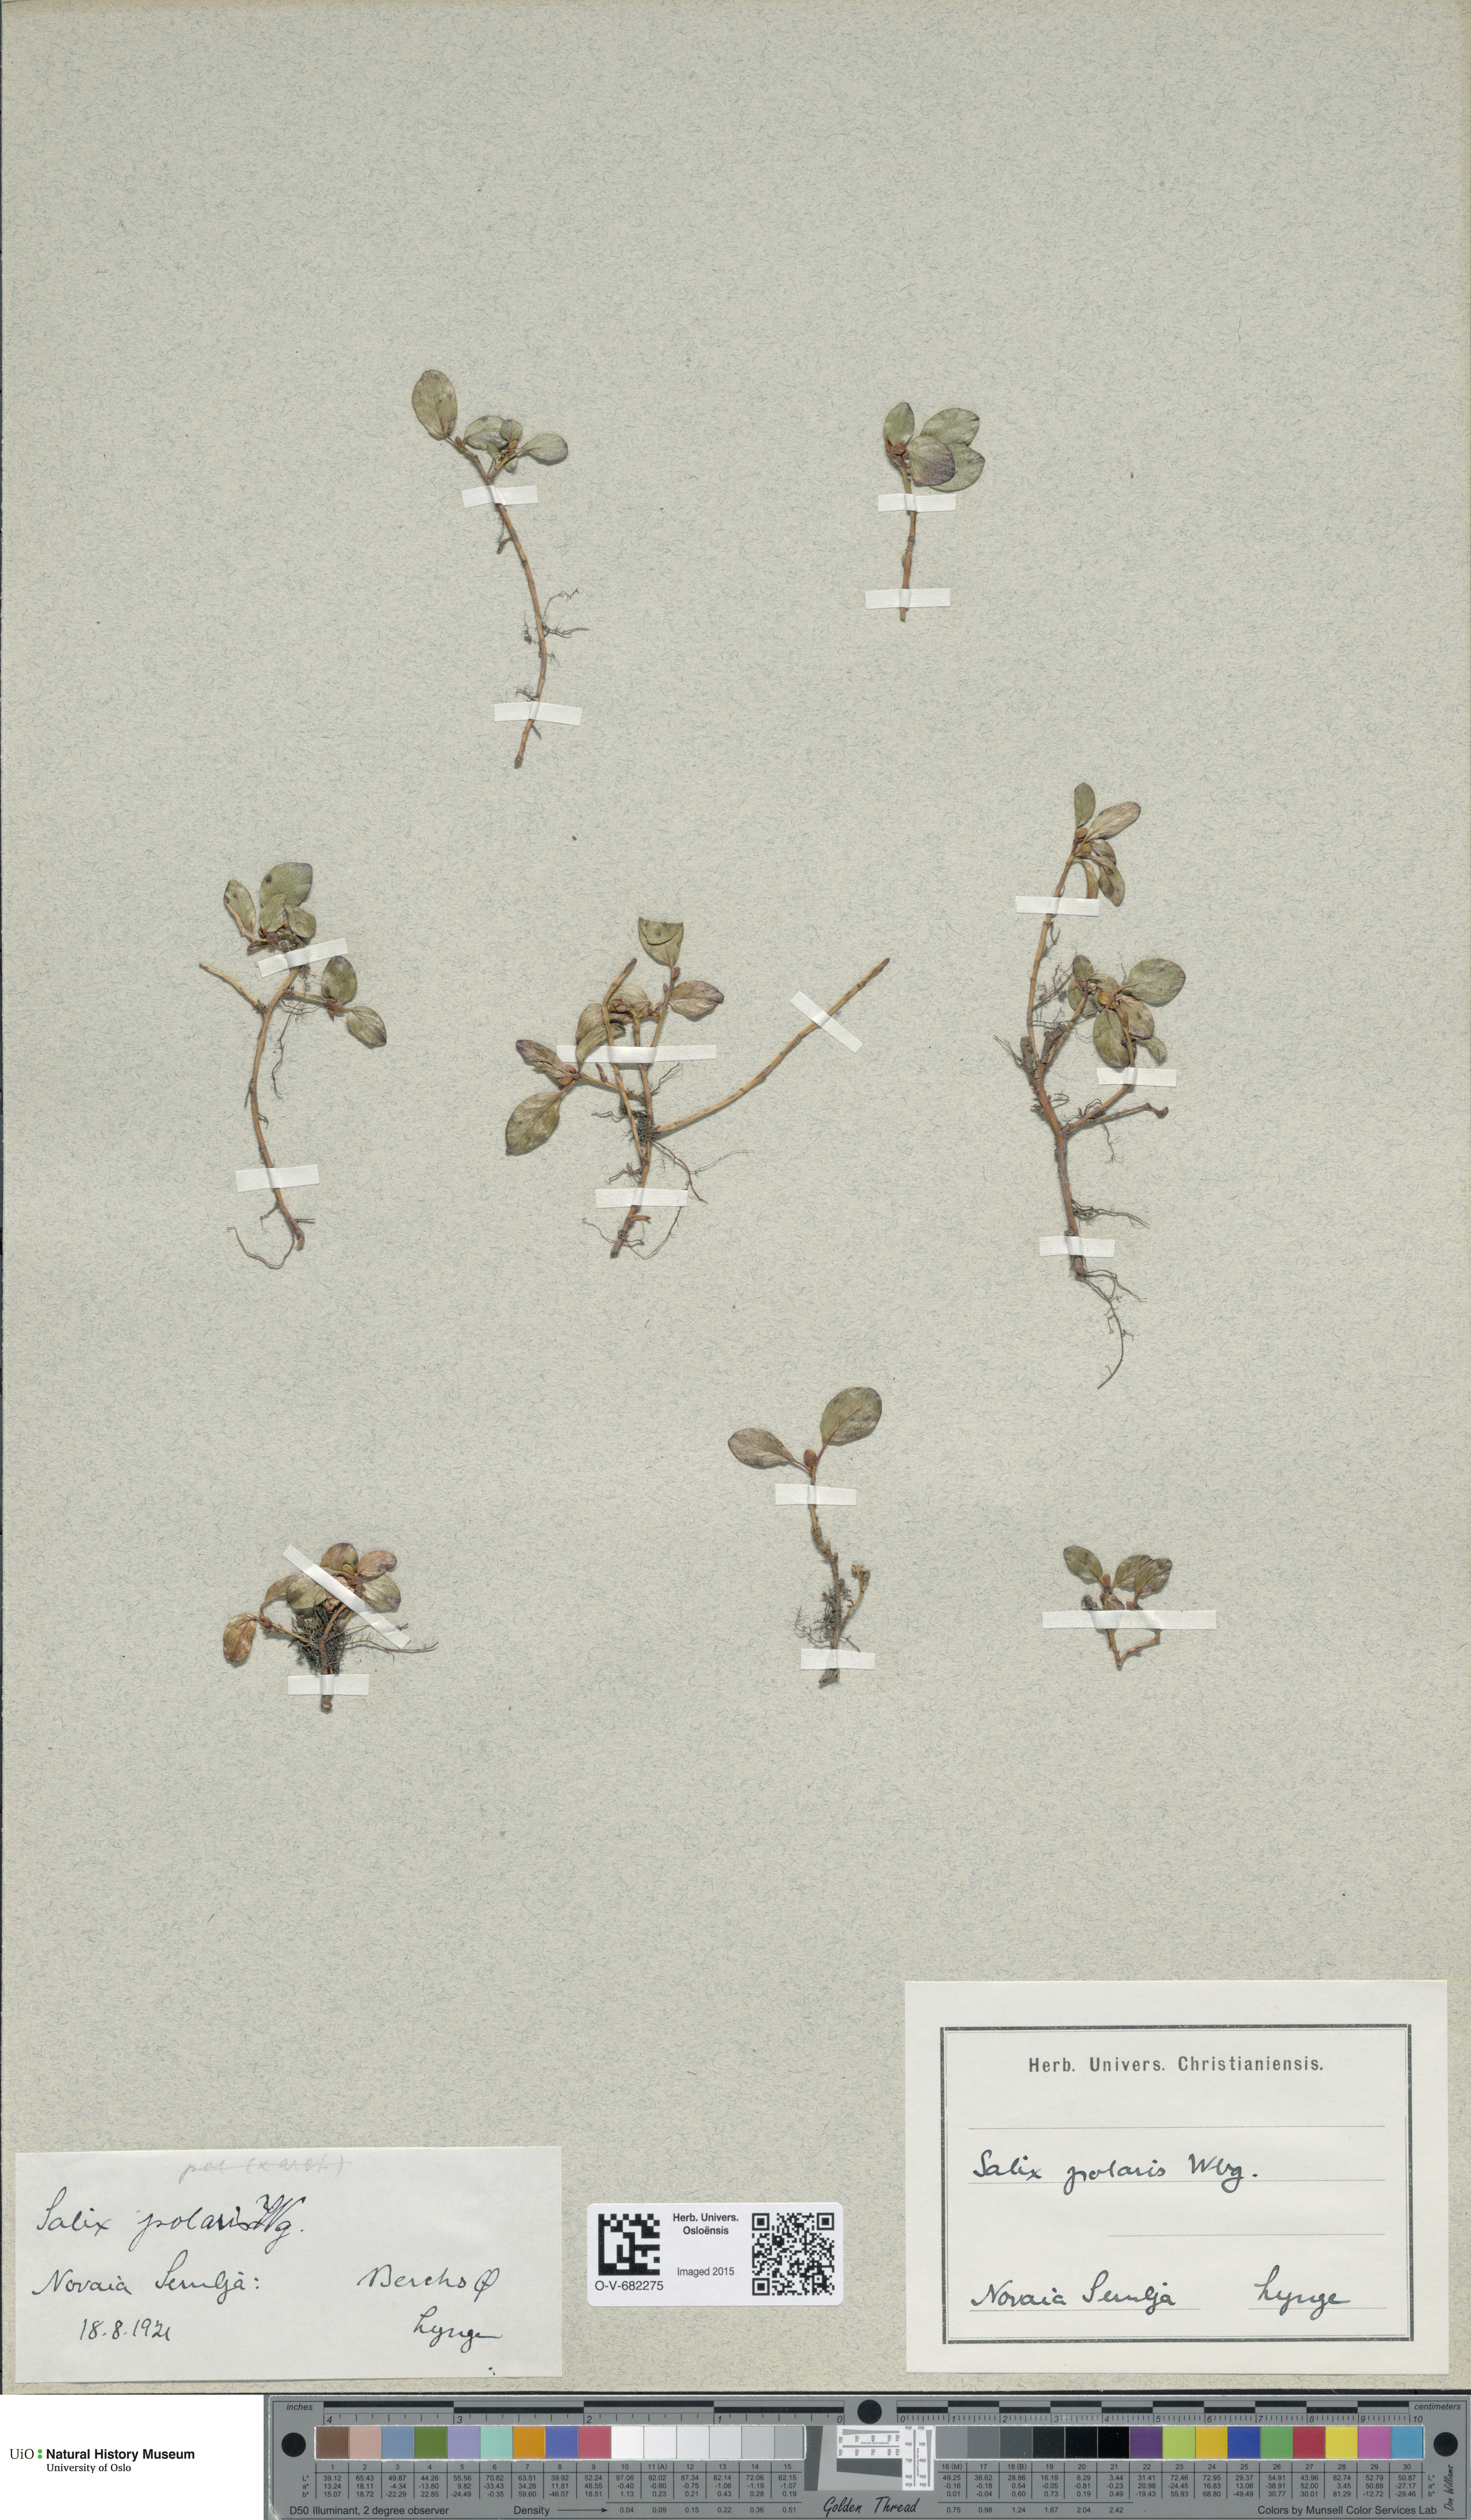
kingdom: Plantae
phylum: Tracheophyta
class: Magnoliopsida
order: Malpighiales
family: Salicaceae
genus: Salix
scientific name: Salix polaris
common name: Polar willow
